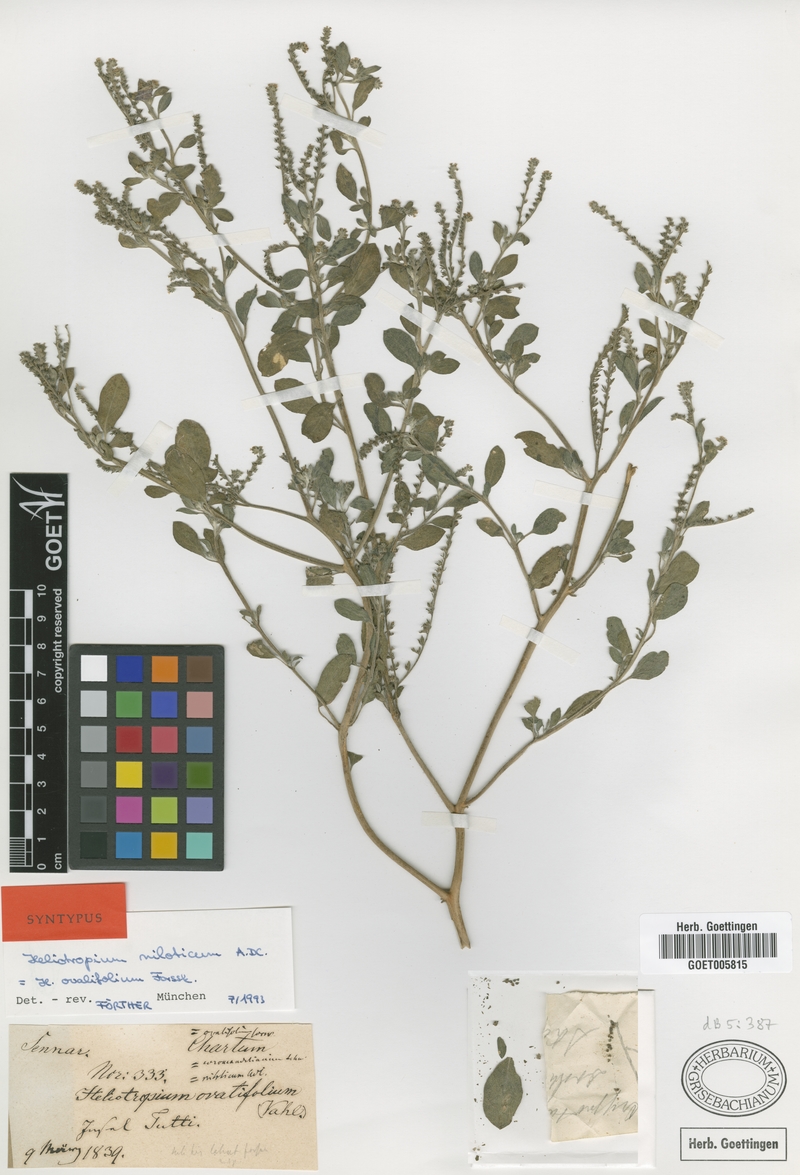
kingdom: Plantae
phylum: Tracheophyta
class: Magnoliopsida
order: Boraginales
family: Heliotropiaceae
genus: Euploca
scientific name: Euploca ovalifolia
